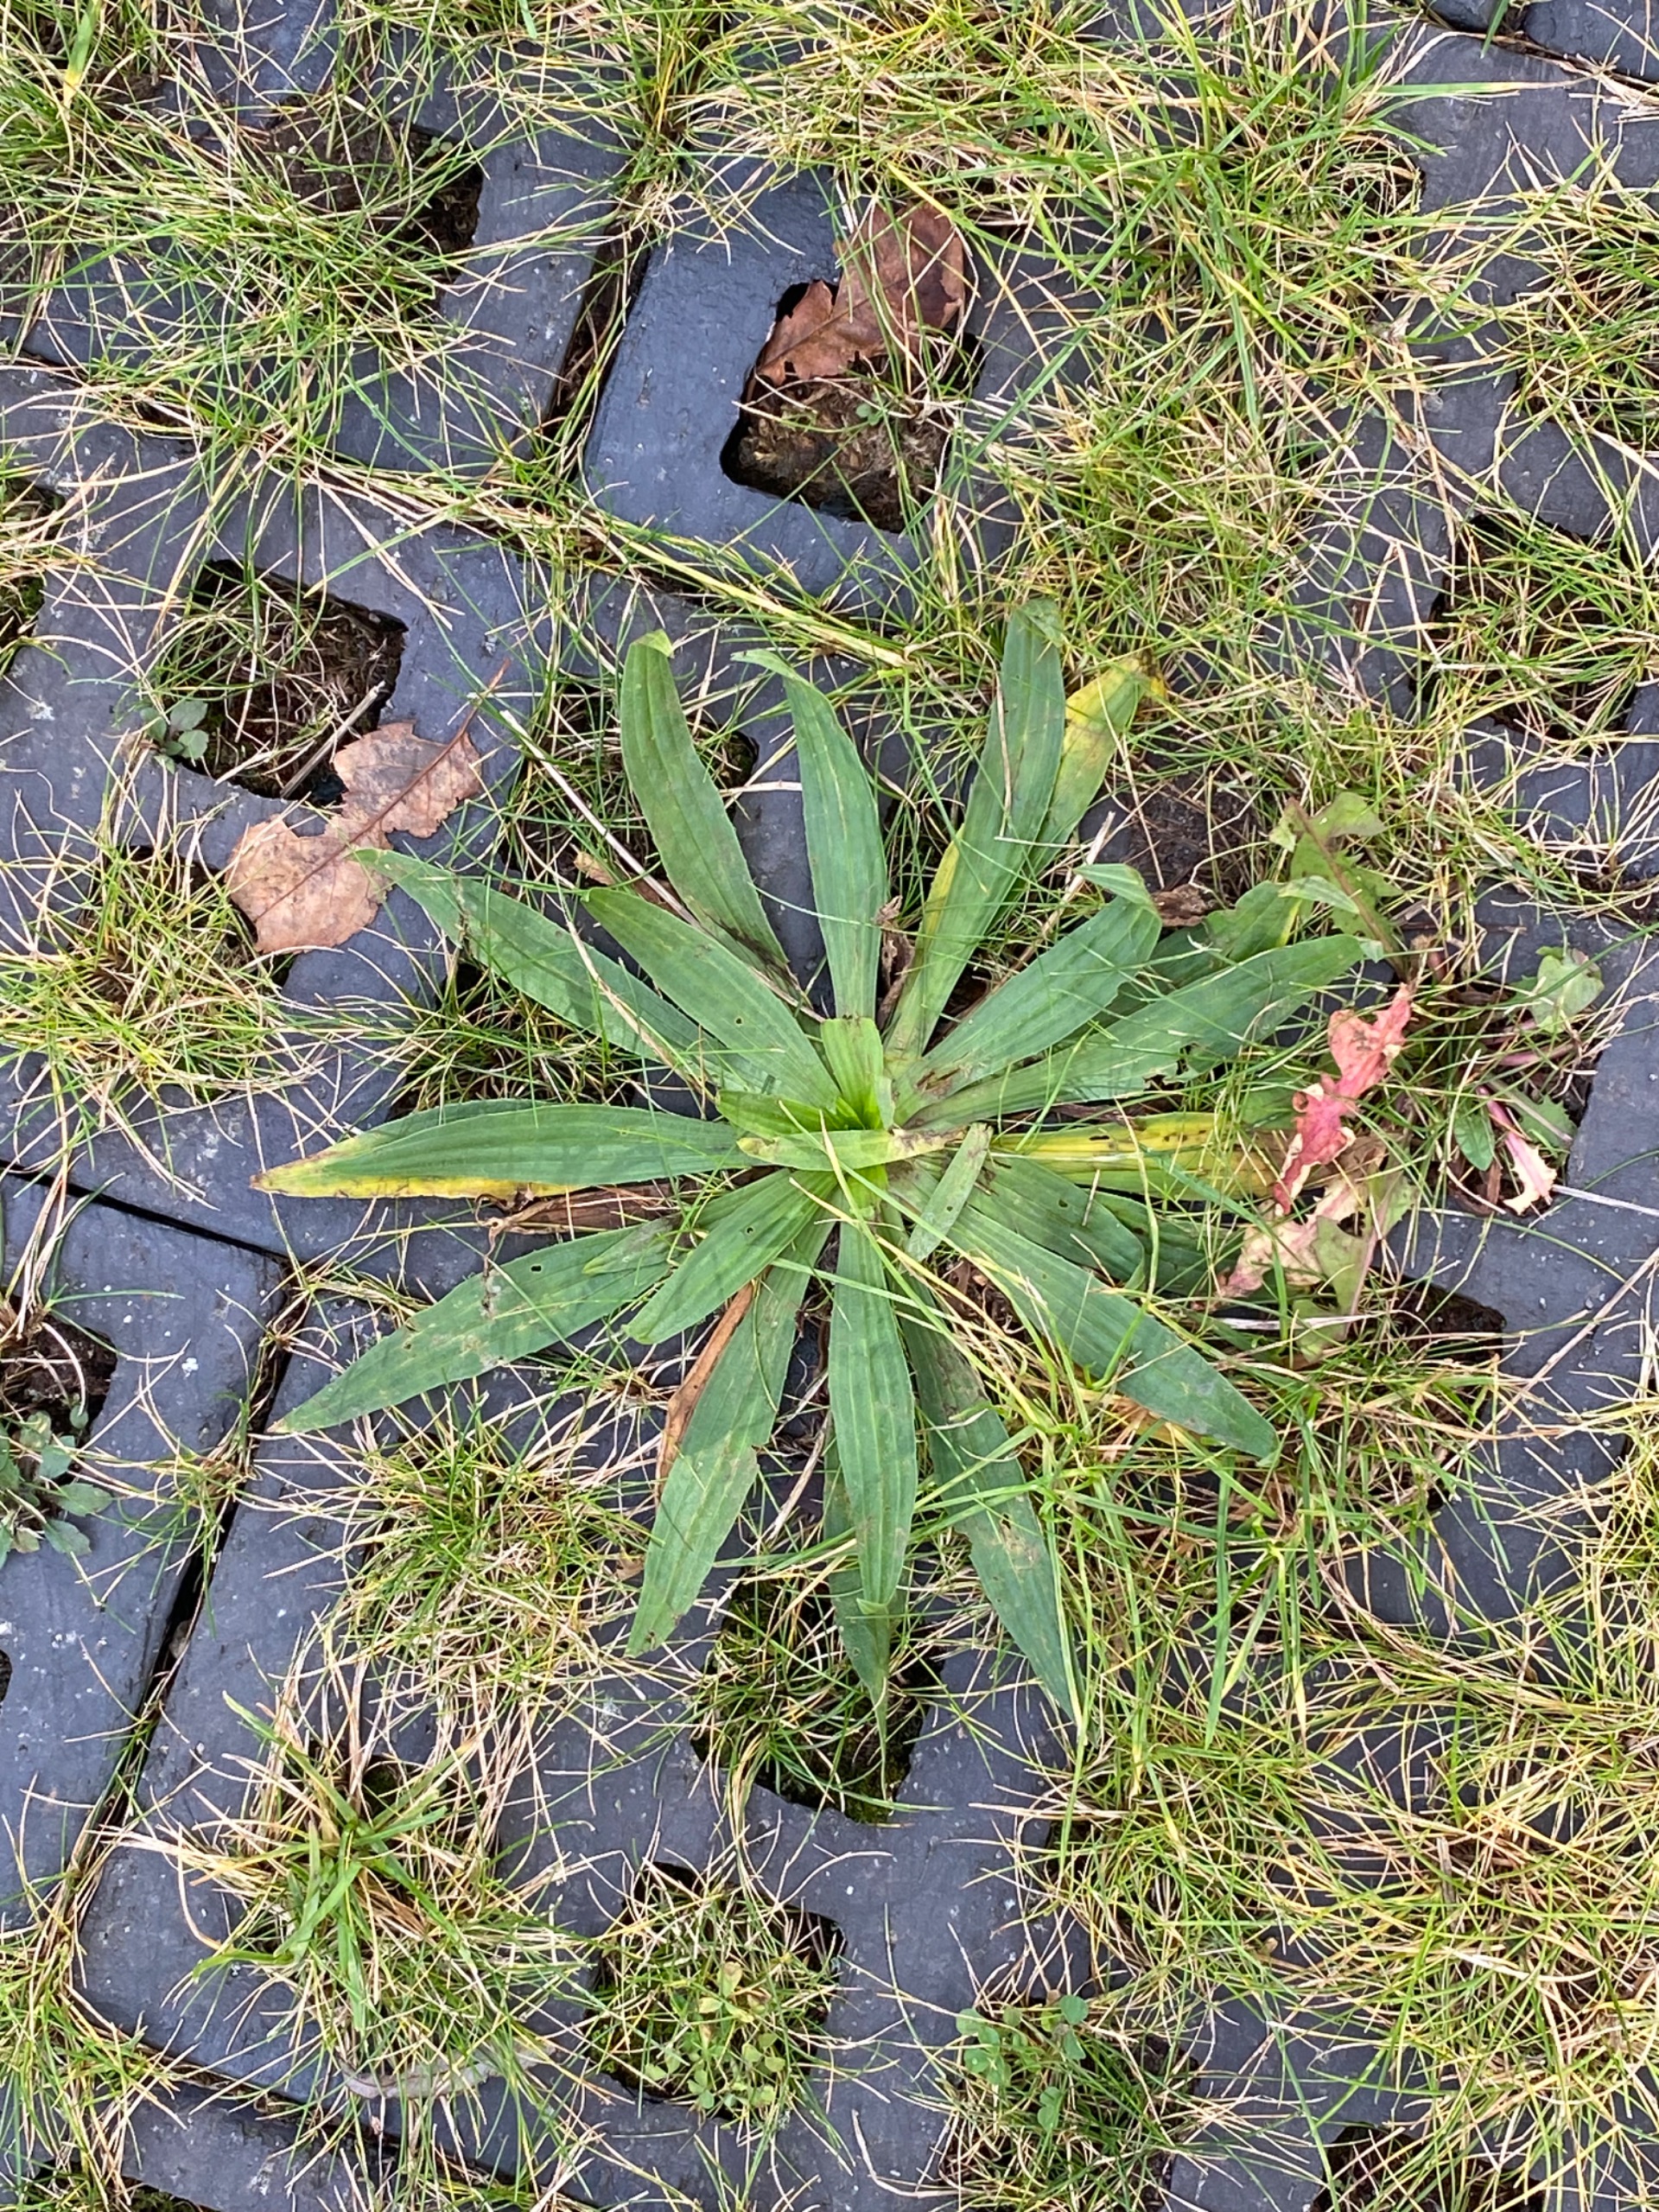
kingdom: Plantae
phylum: Tracheophyta
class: Magnoliopsida
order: Lamiales
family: Plantaginaceae
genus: Plantago
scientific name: Plantago lanceolata
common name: Lancet-vejbred
